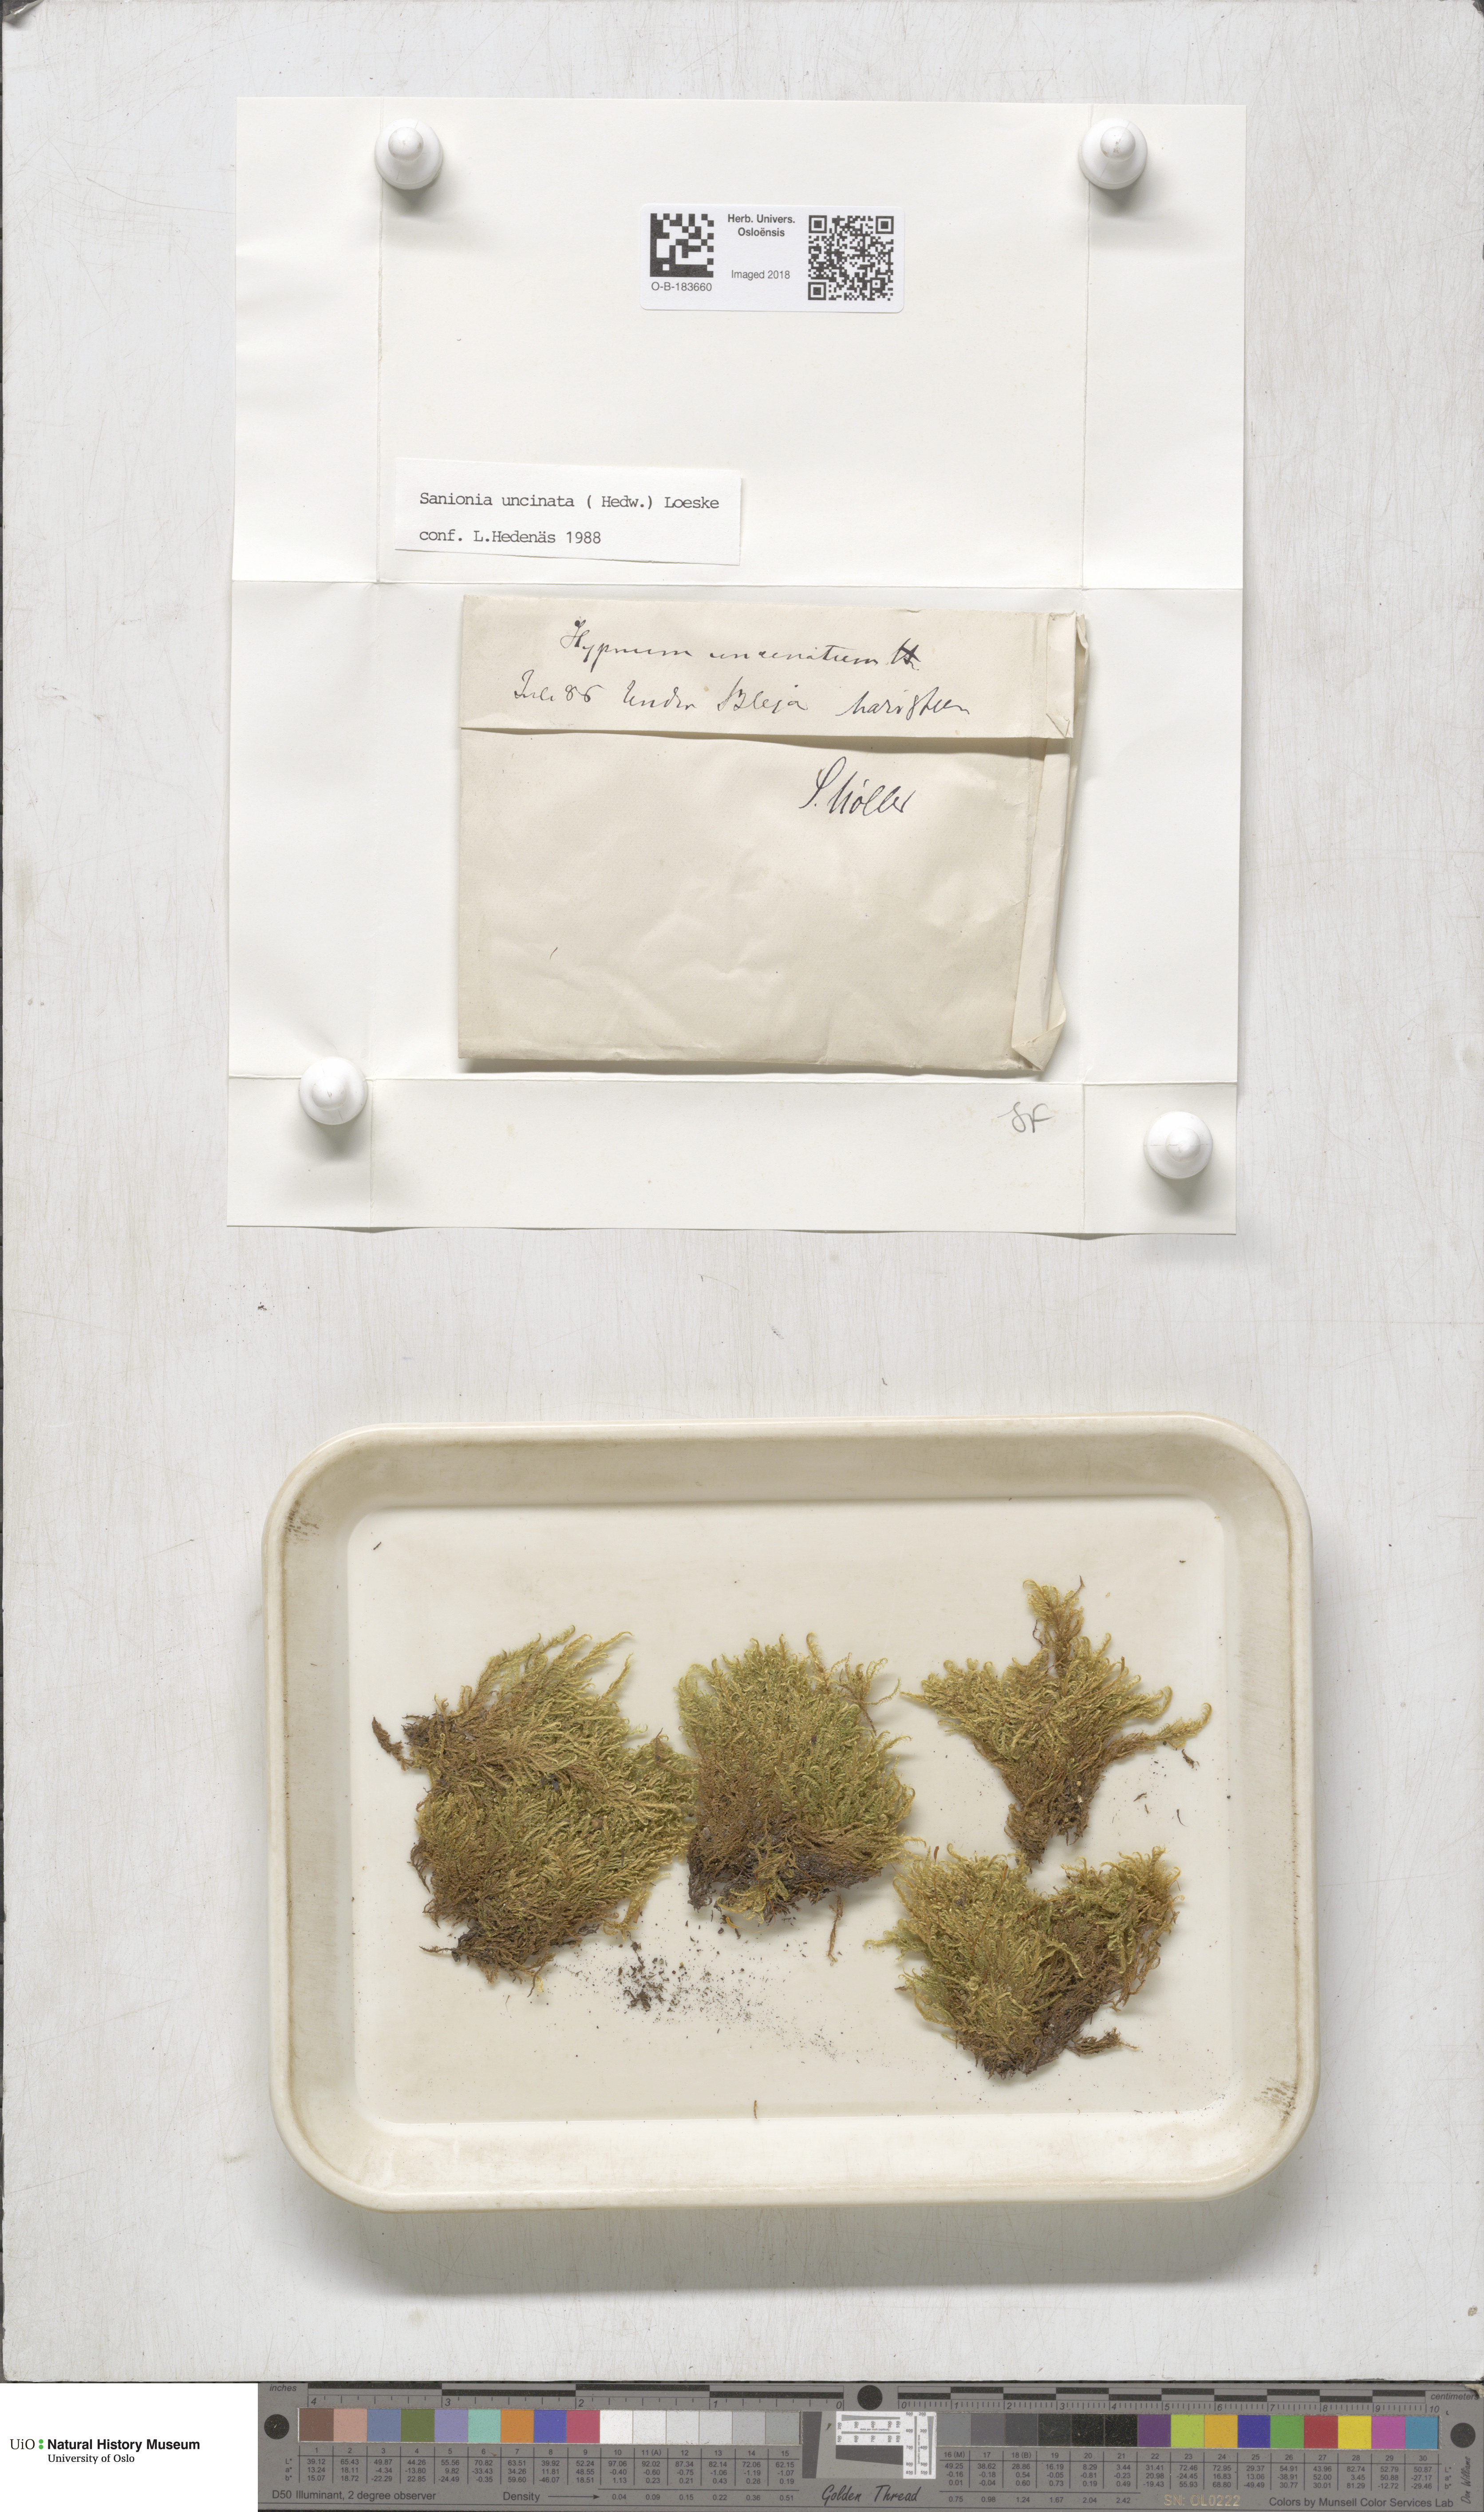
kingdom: Plantae
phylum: Bryophyta
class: Bryopsida
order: Hypnales
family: Scorpidiaceae
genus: Sanionia
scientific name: Sanionia uncinata
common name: Sickle moss
